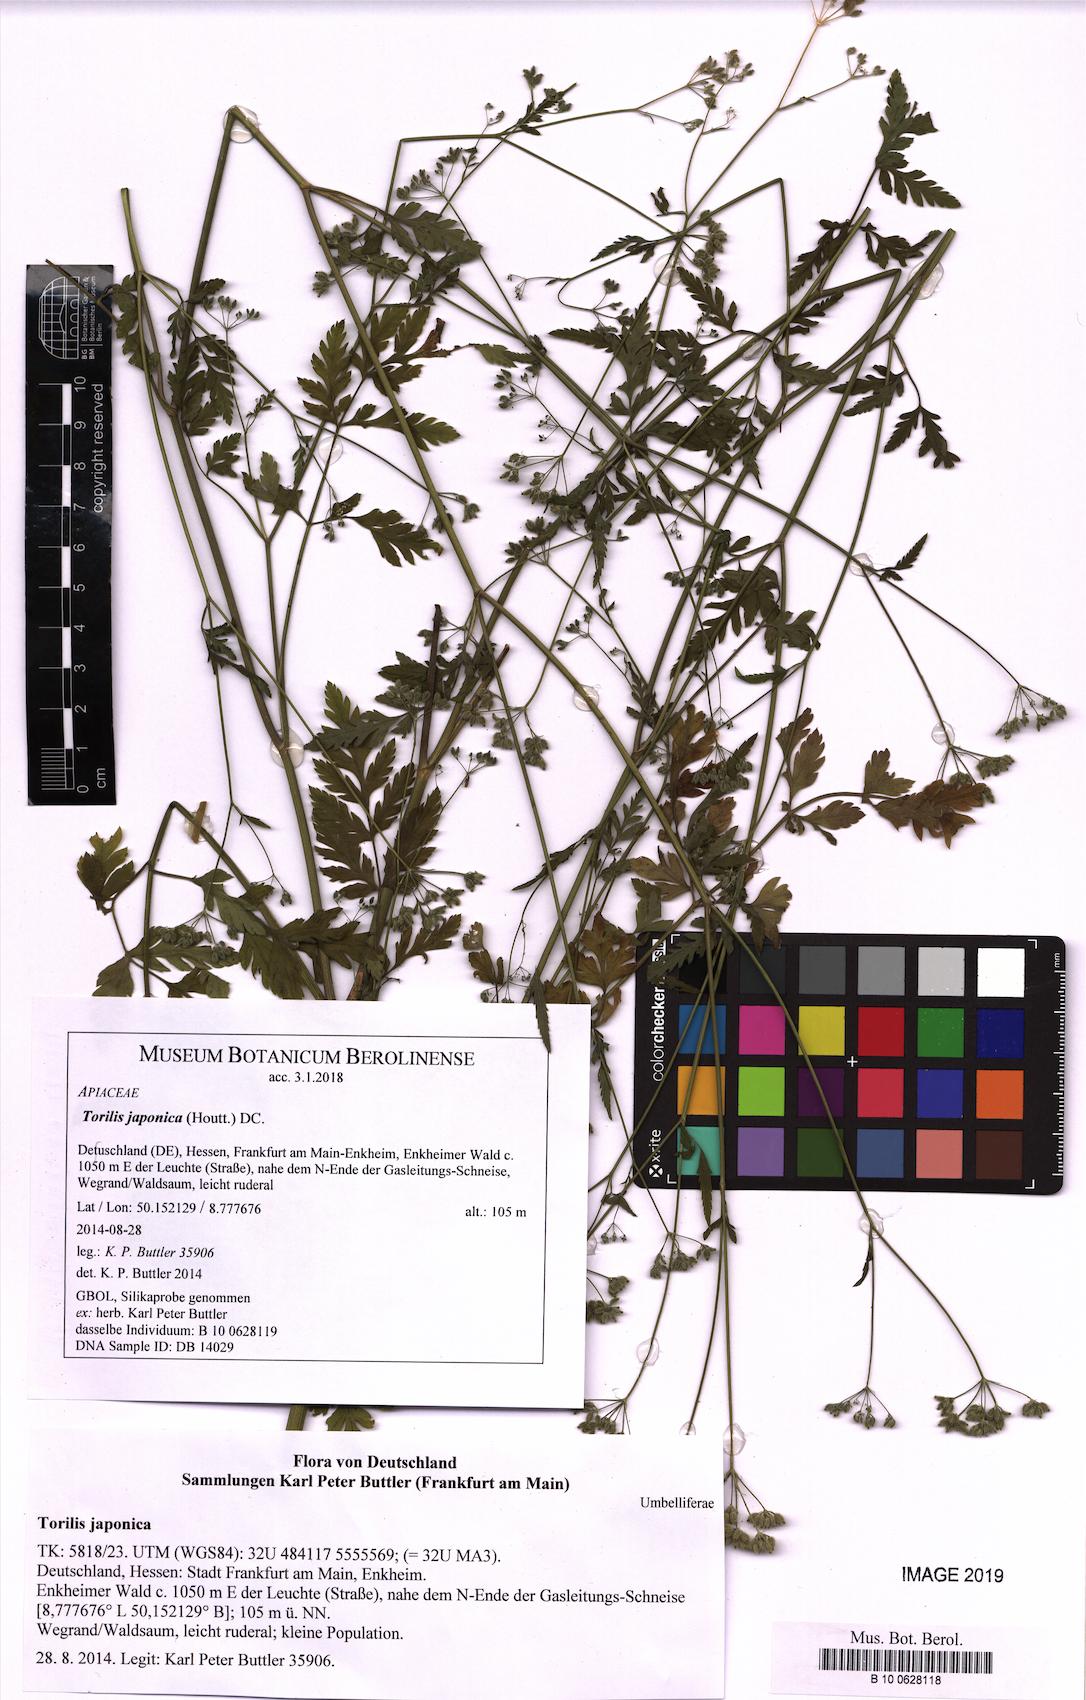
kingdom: Plantae
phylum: Tracheophyta
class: Magnoliopsida
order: Apiales
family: Apiaceae
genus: Torilis
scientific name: Torilis japonica
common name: Upright hedge-parsley
